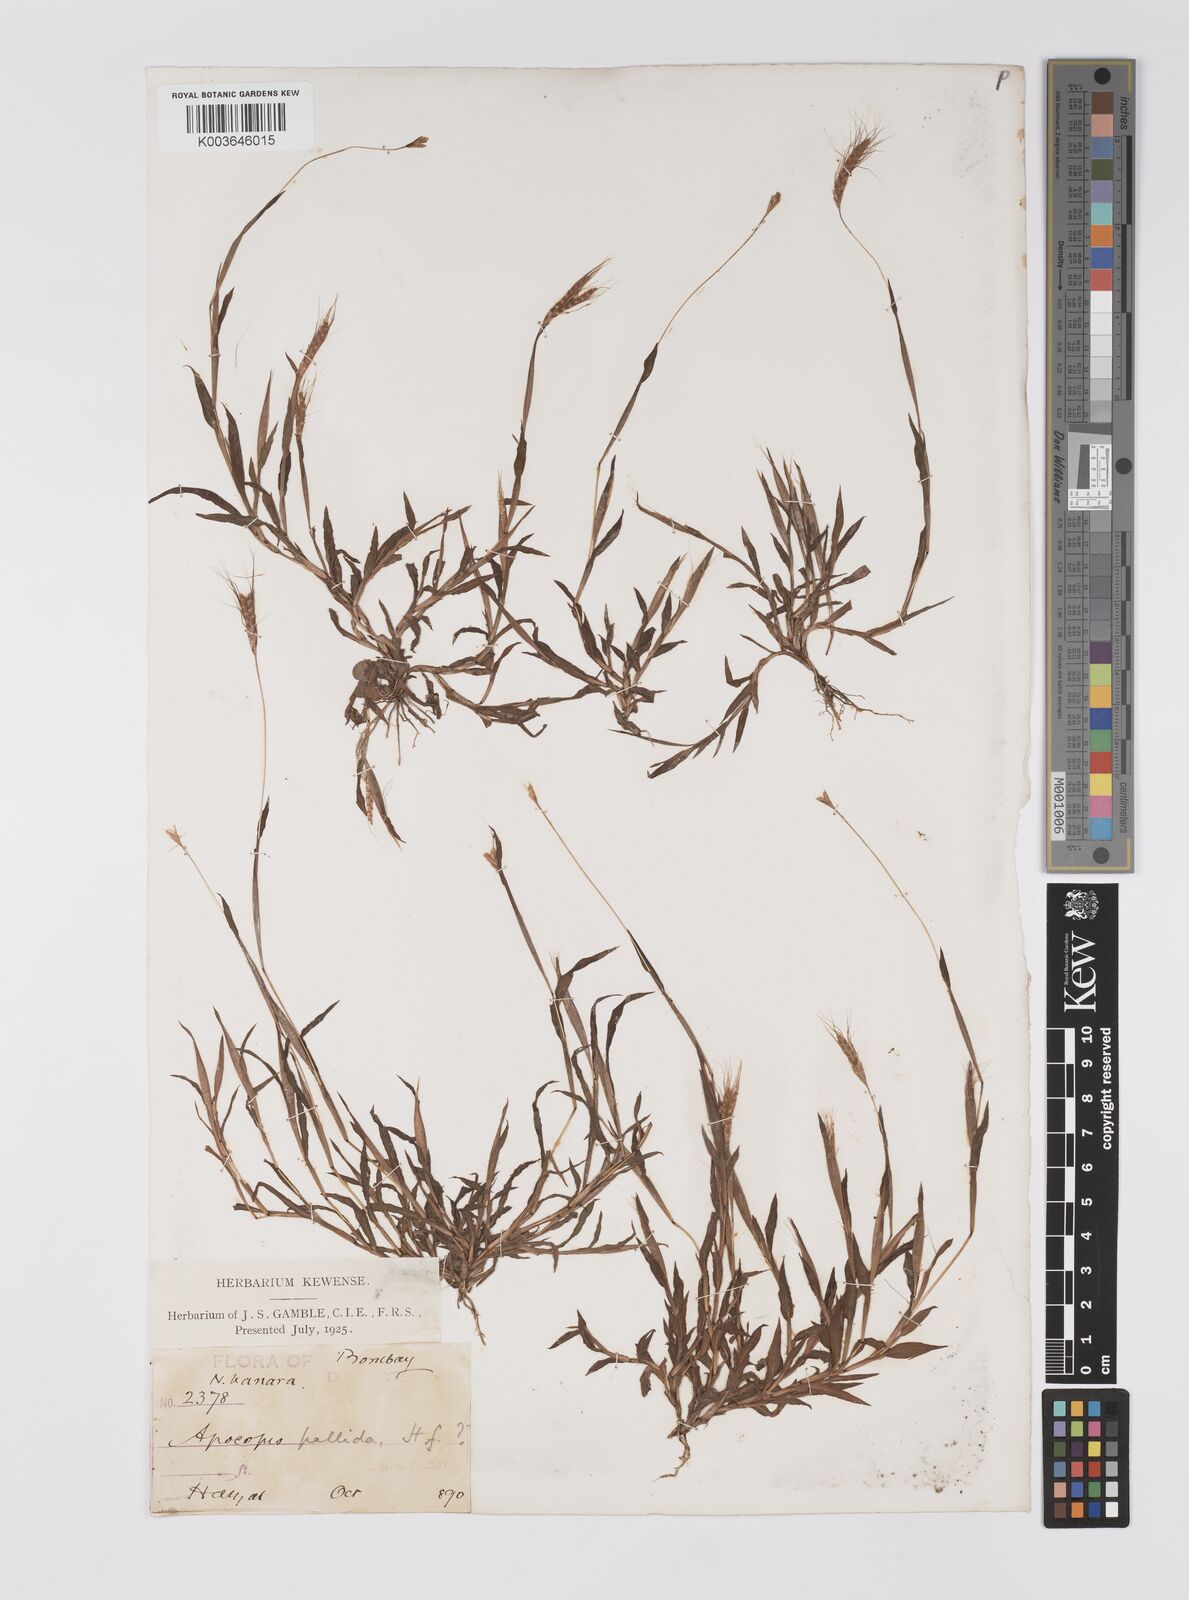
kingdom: Plantae
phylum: Tracheophyta
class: Liliopsida
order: Poales
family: Poaceae
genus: Apocopis
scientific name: Apocopis mangalorensis
